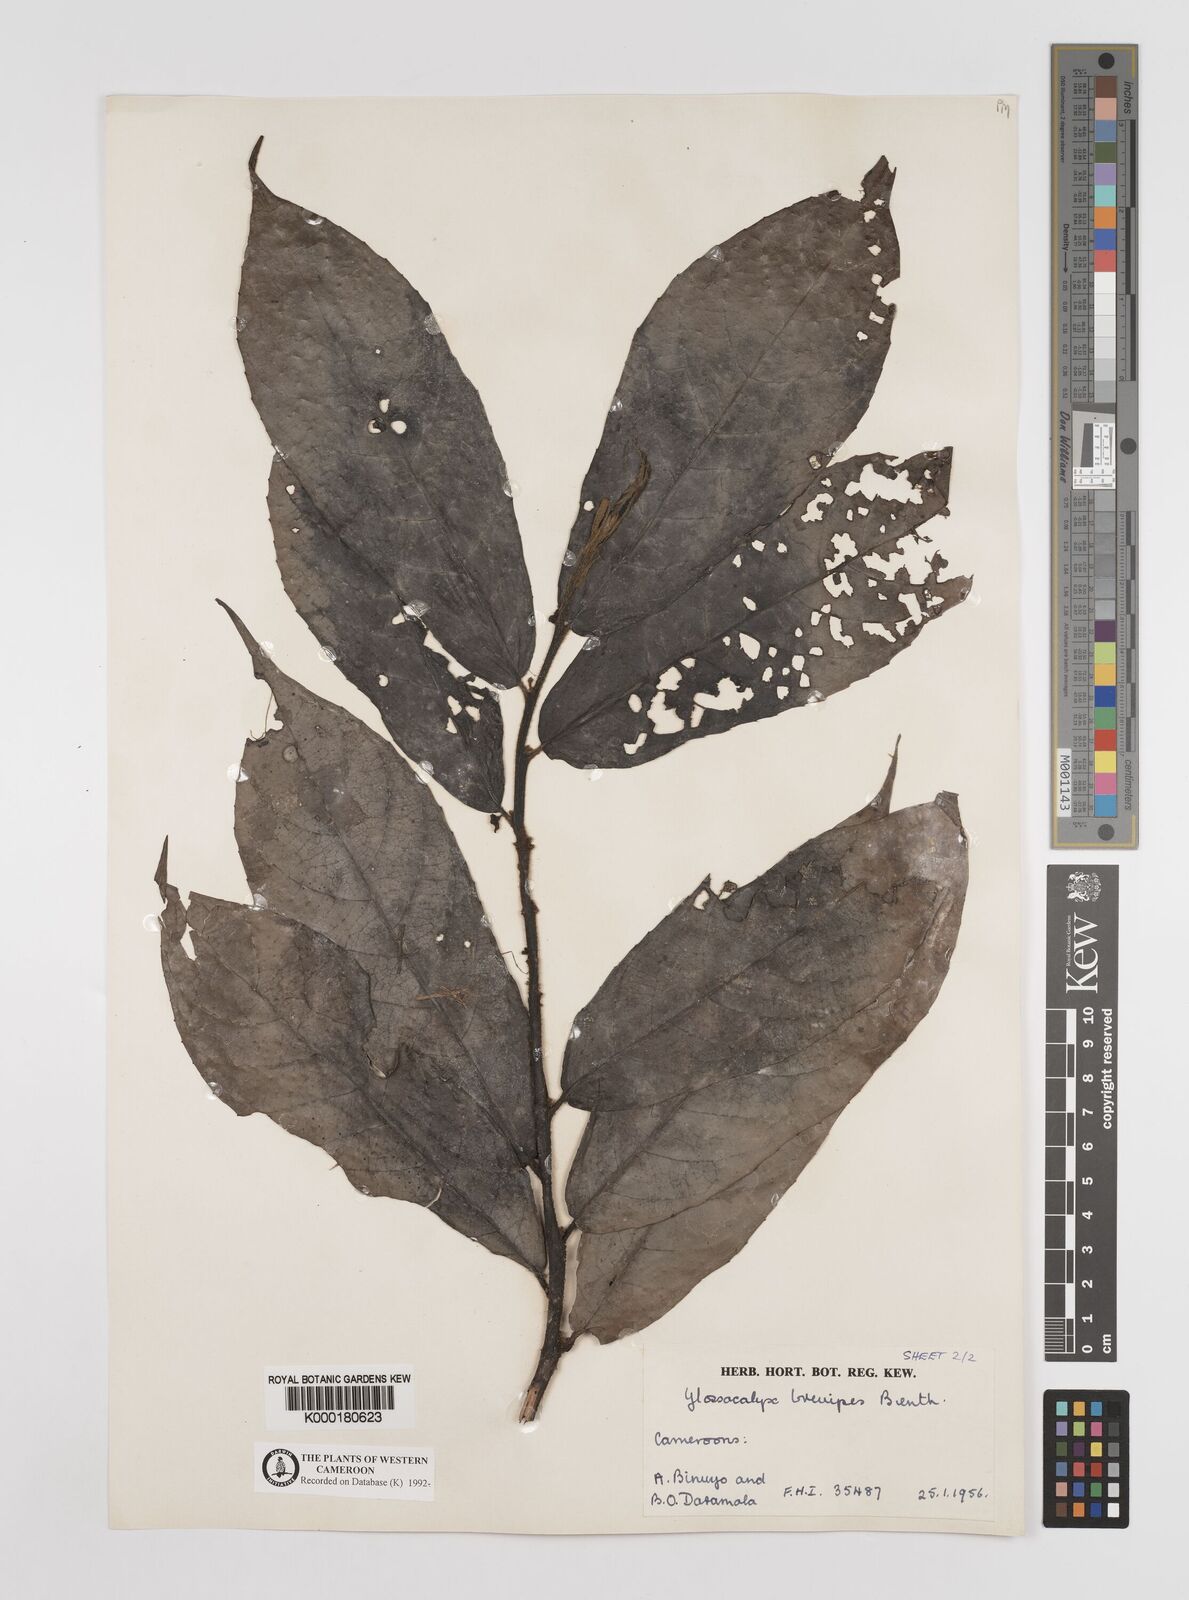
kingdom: Plantae
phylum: Tracheophyta
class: Magnoliopsida
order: Laurales
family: Siparunaceae
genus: Glossocalyx
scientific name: Glossocalyx brevipes
